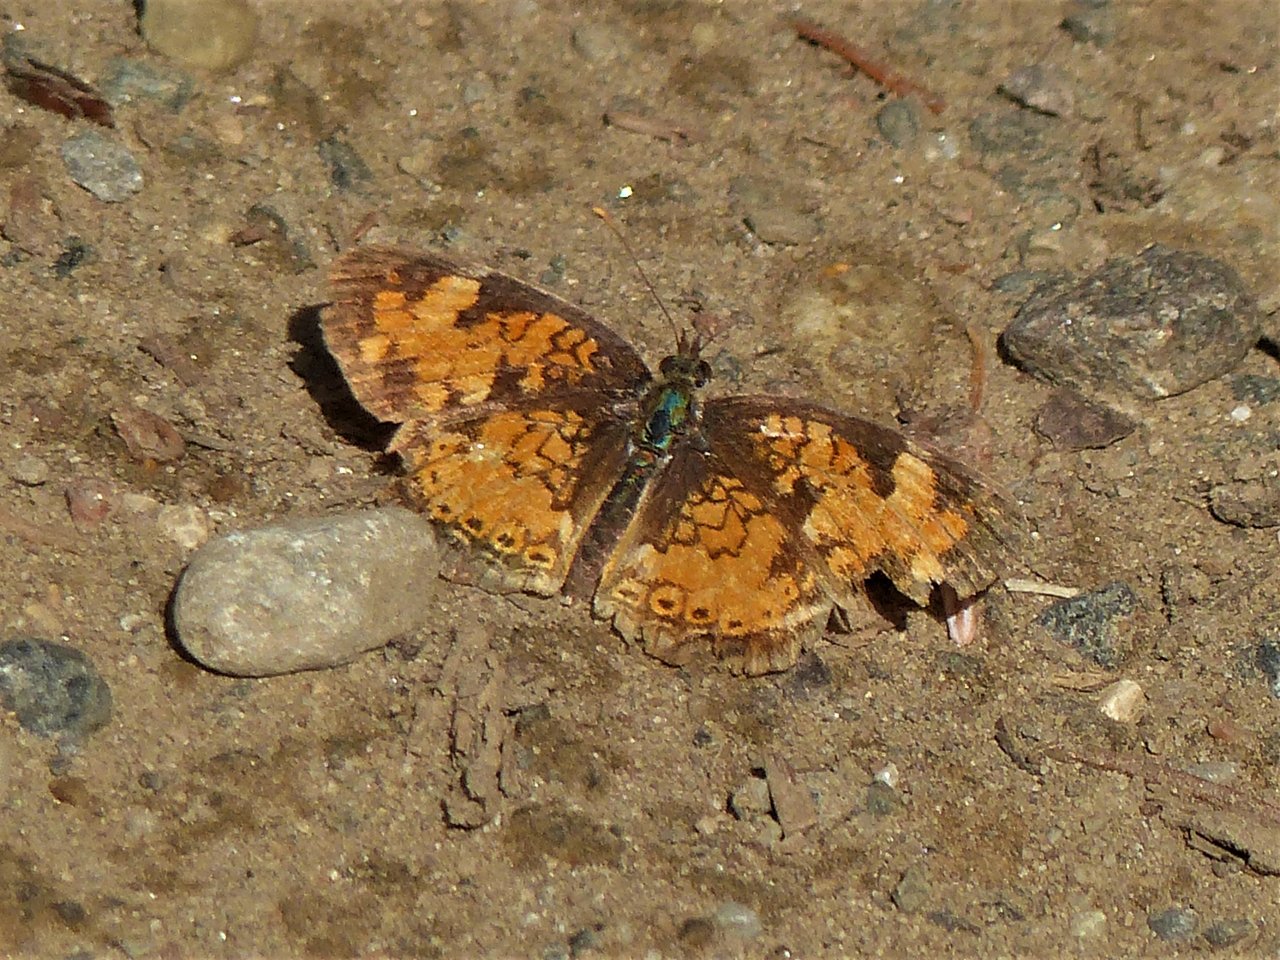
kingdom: Animalia
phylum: Arthropoda
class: Insecta
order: Lepidoptera
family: Nymphalidae
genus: Phyciodes
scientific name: Phyciodes tharos
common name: Northern Crescent
